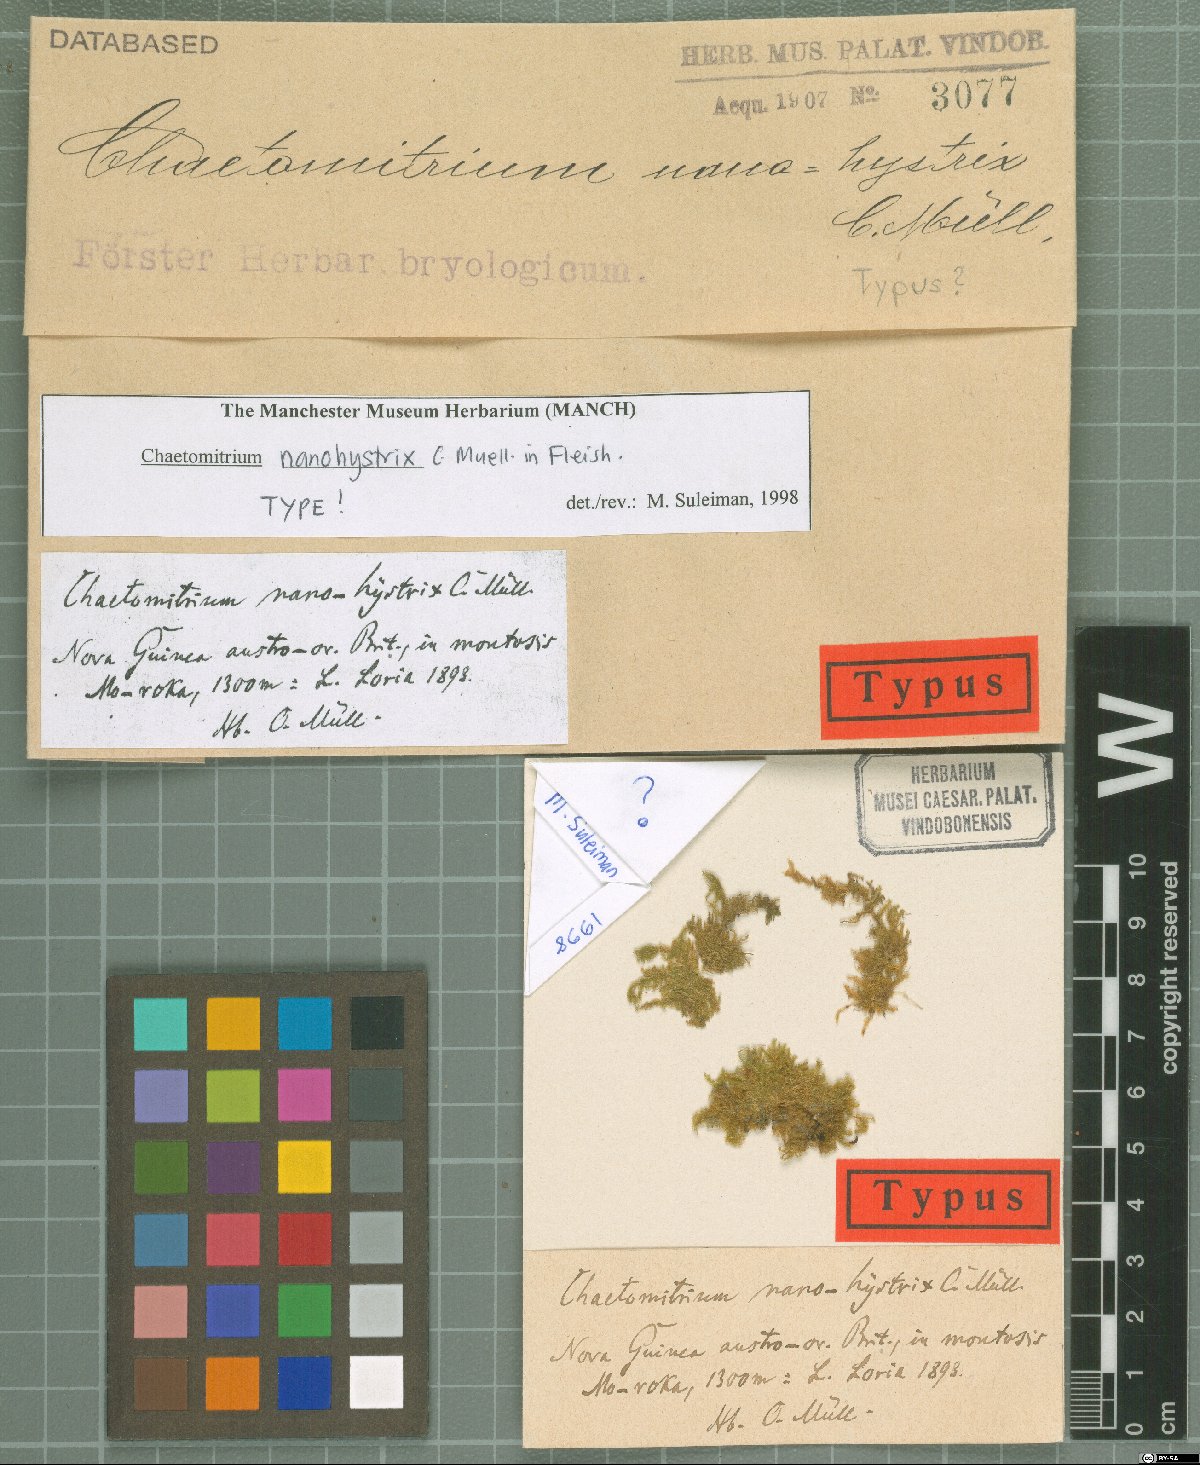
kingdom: Plantae
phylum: Bryophyta
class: Bryopsida
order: Hypnales
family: Symphyodontaceae
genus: Chaetomitrium
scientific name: Chaetomitrium nanohystrix
